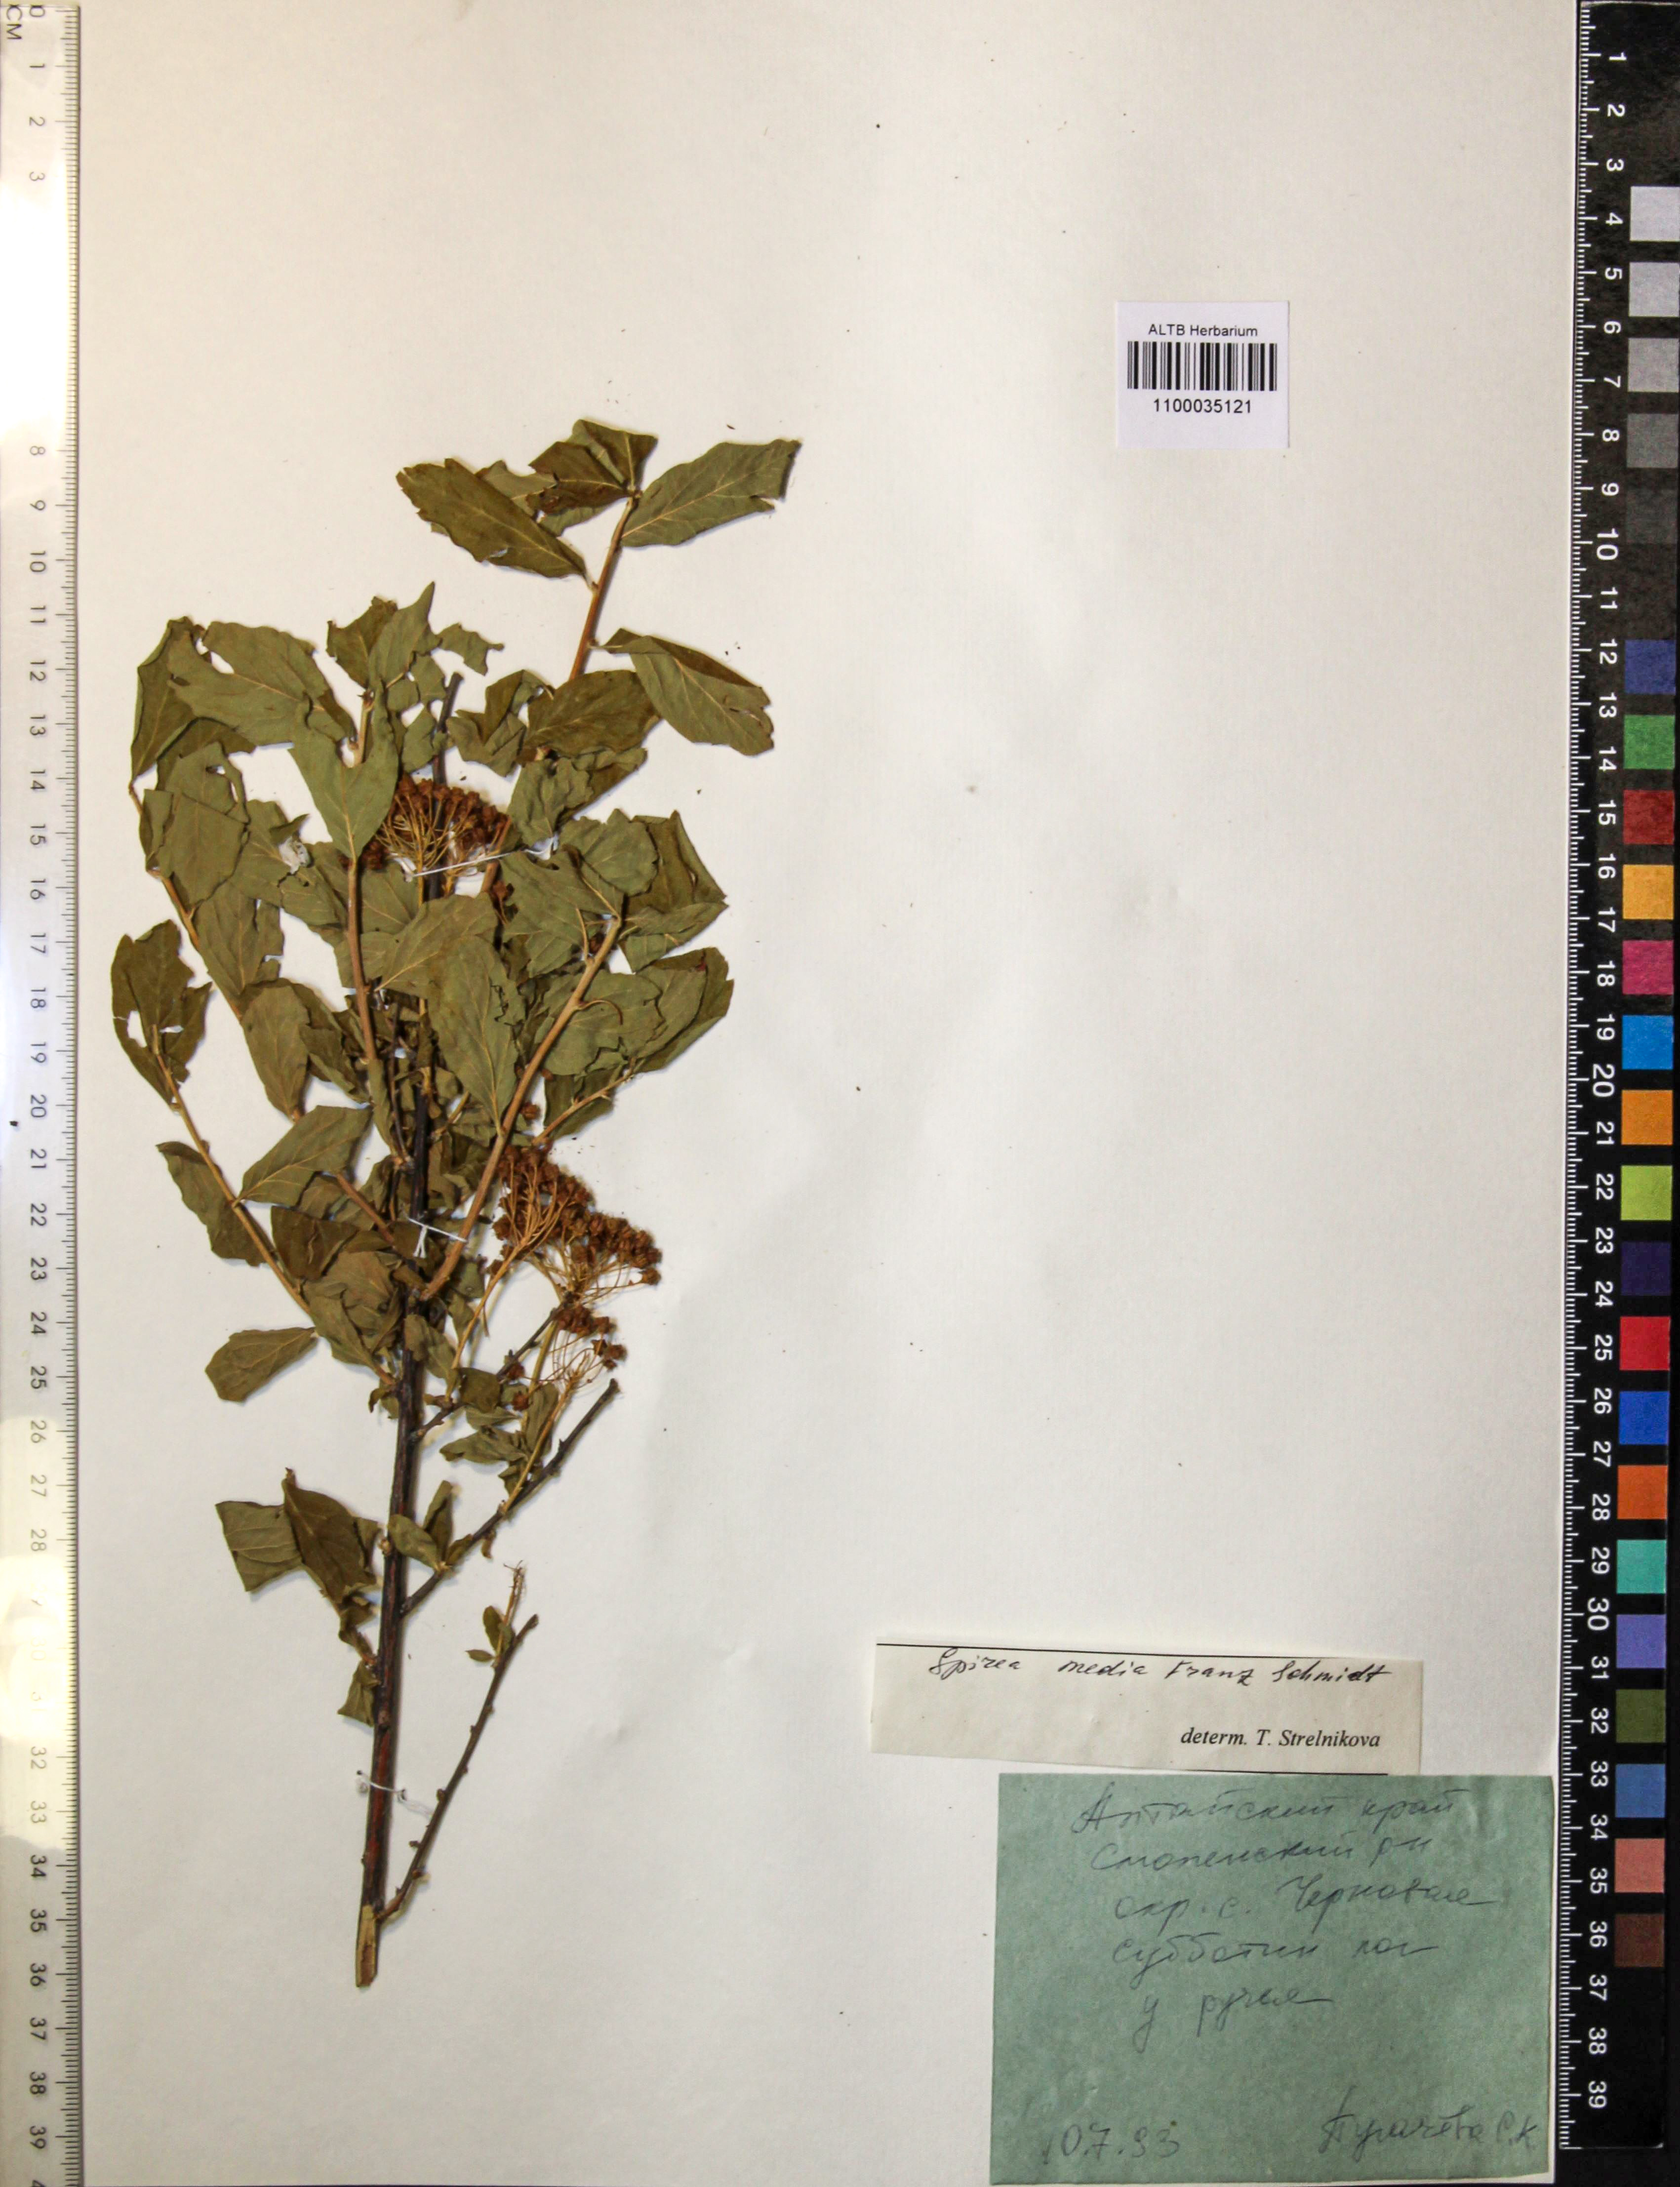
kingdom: Plantae
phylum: Tracheophyta
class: Magnoliopsida
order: Rosales
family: Rosaceae
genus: Spiraea
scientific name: Spiraea media
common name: Russian spiraea
